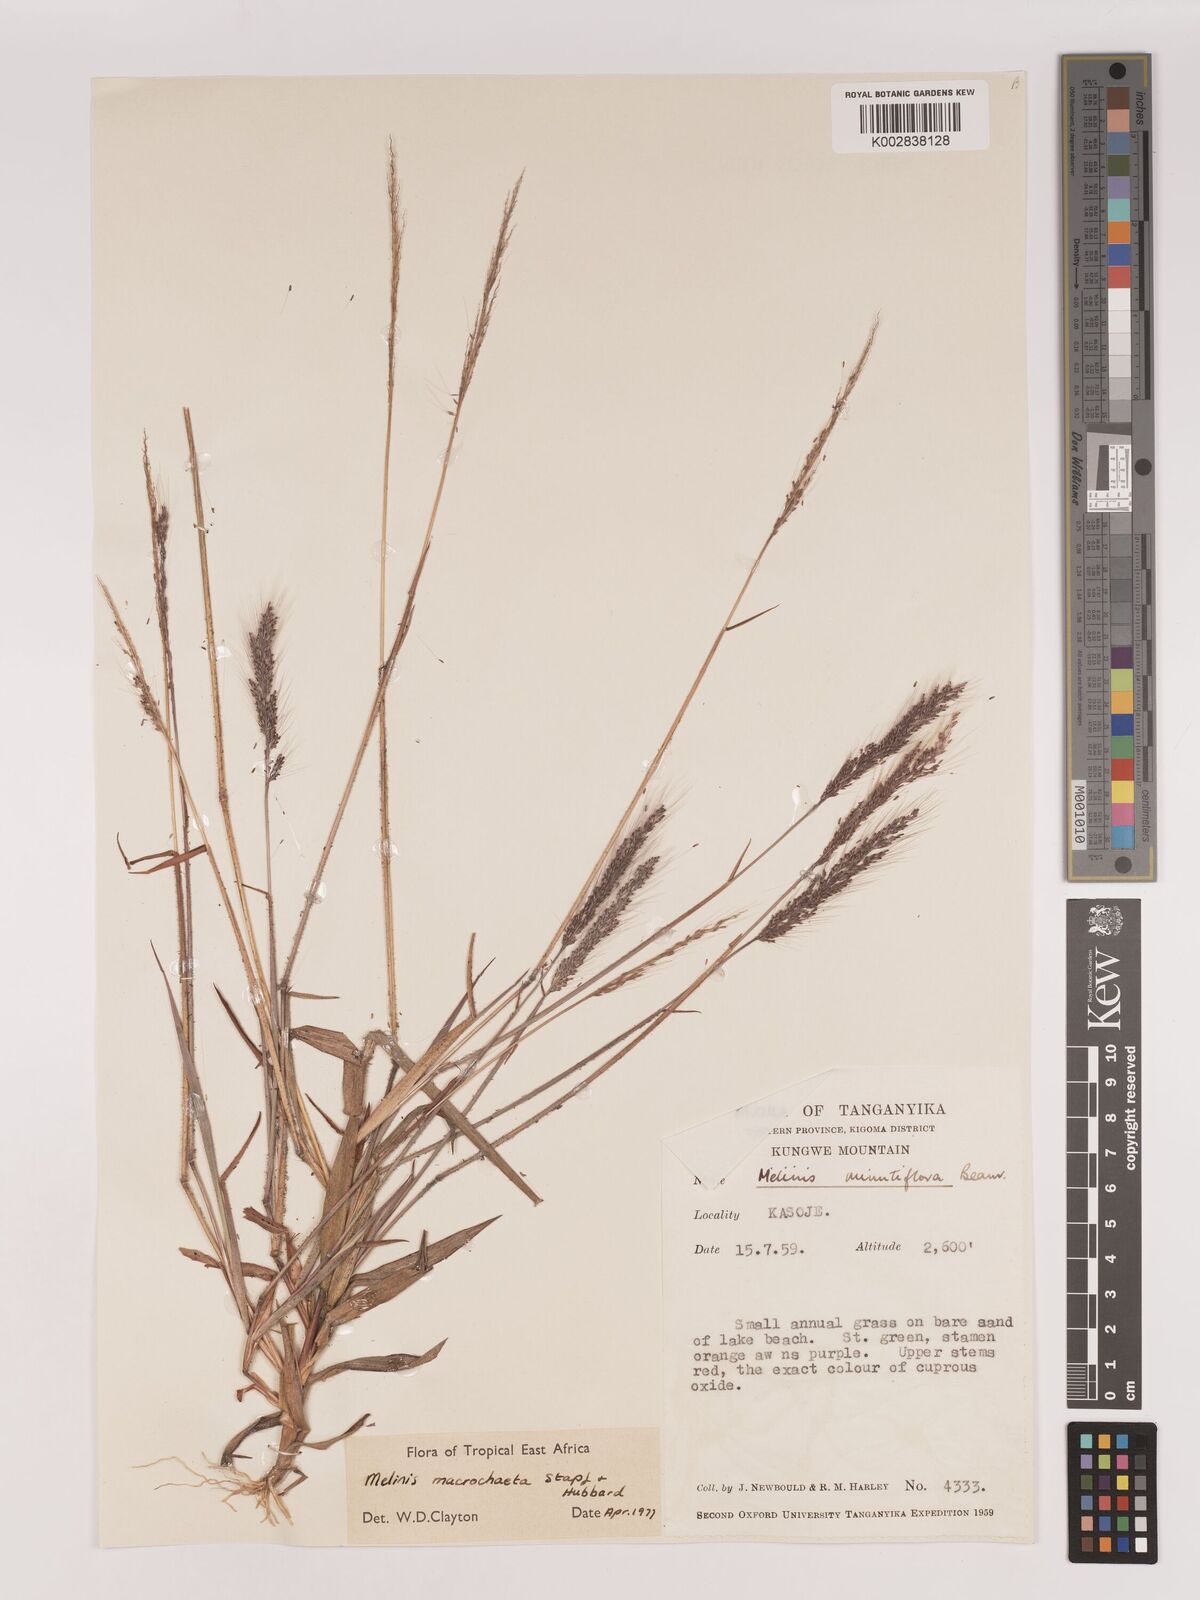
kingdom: Plantae
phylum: Tracheophyta
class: Liliopsida
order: Poales
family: Poaceae
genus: Melinis
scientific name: Melinis macrochaeta
